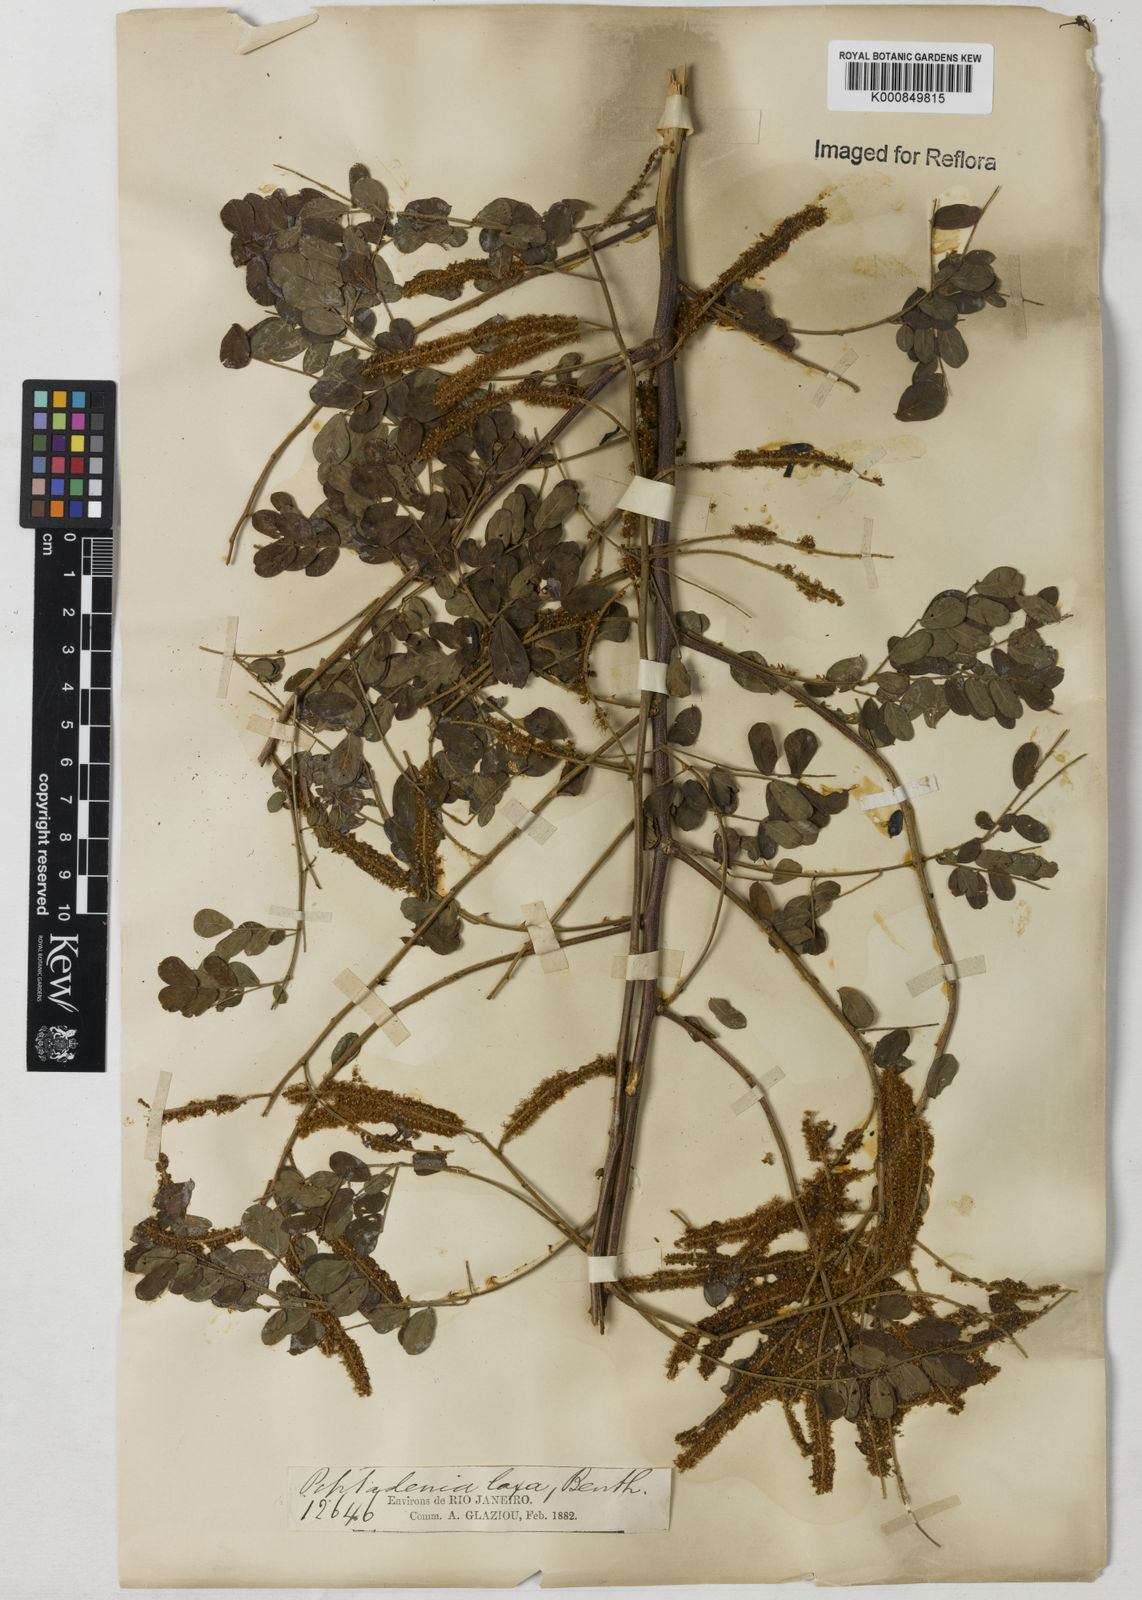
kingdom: Plantae
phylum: Tracheophyta
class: Magnoliopsida
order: Fabales
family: Fabaceae
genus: Piptadenia
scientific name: Piptadenia adiantoides
